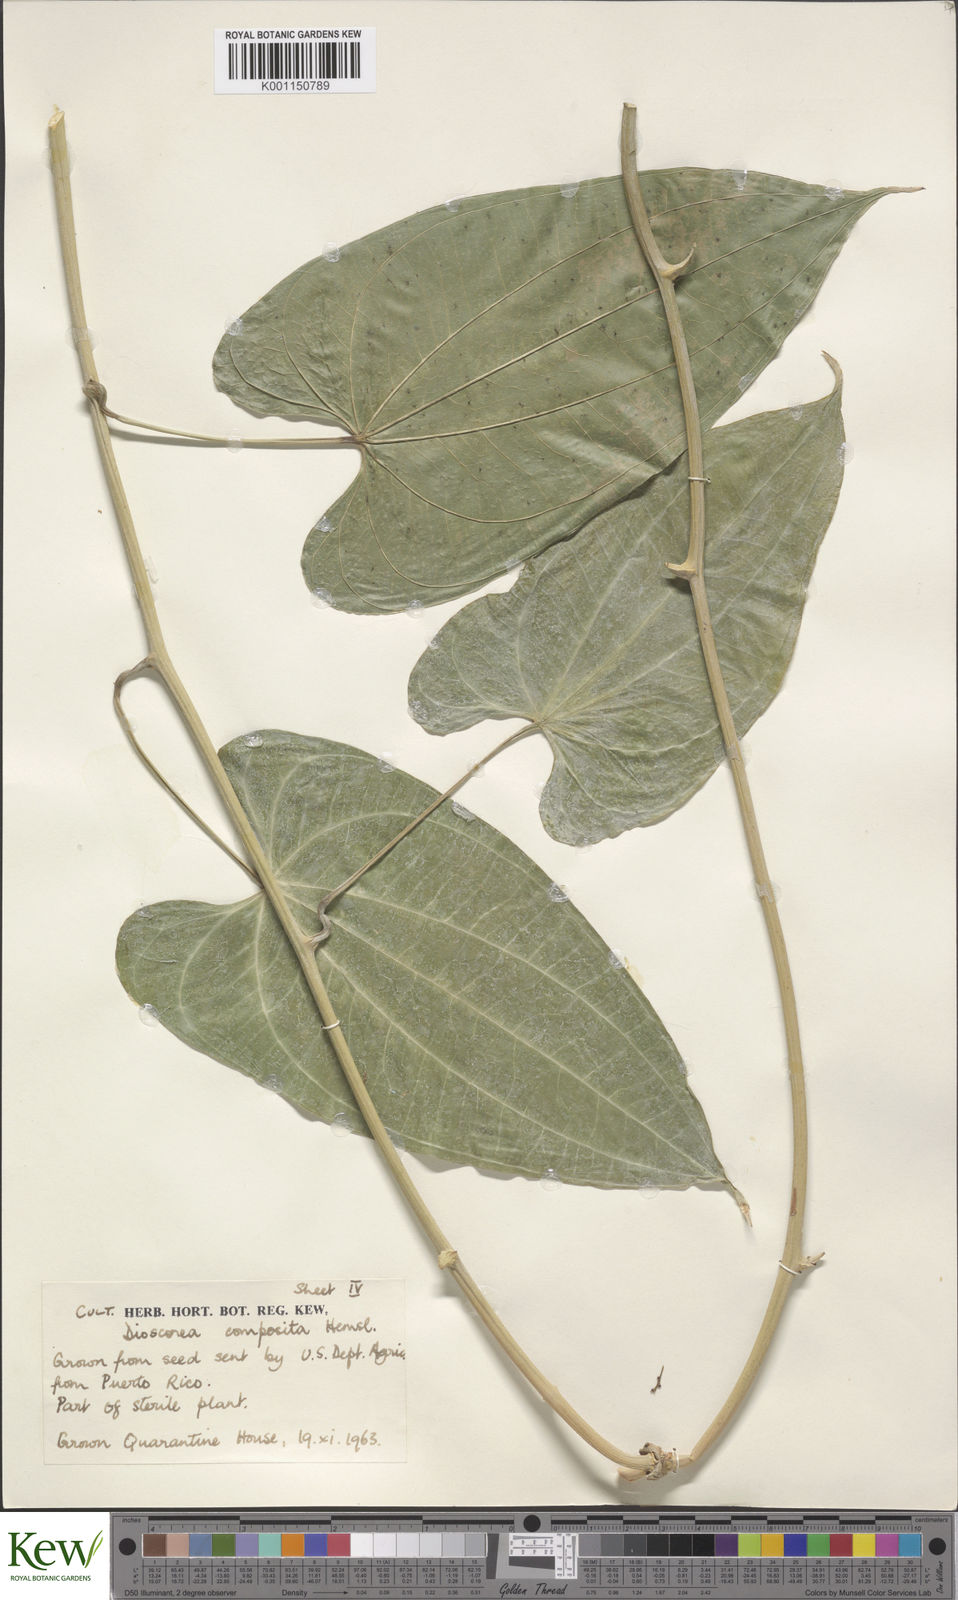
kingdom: Plantae
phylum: Tracheophyta
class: Liliopsida
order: Dioscoreales
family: Dioscoreaceae
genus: Dioscorea
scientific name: Dioscorea composita
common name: Barbasco
